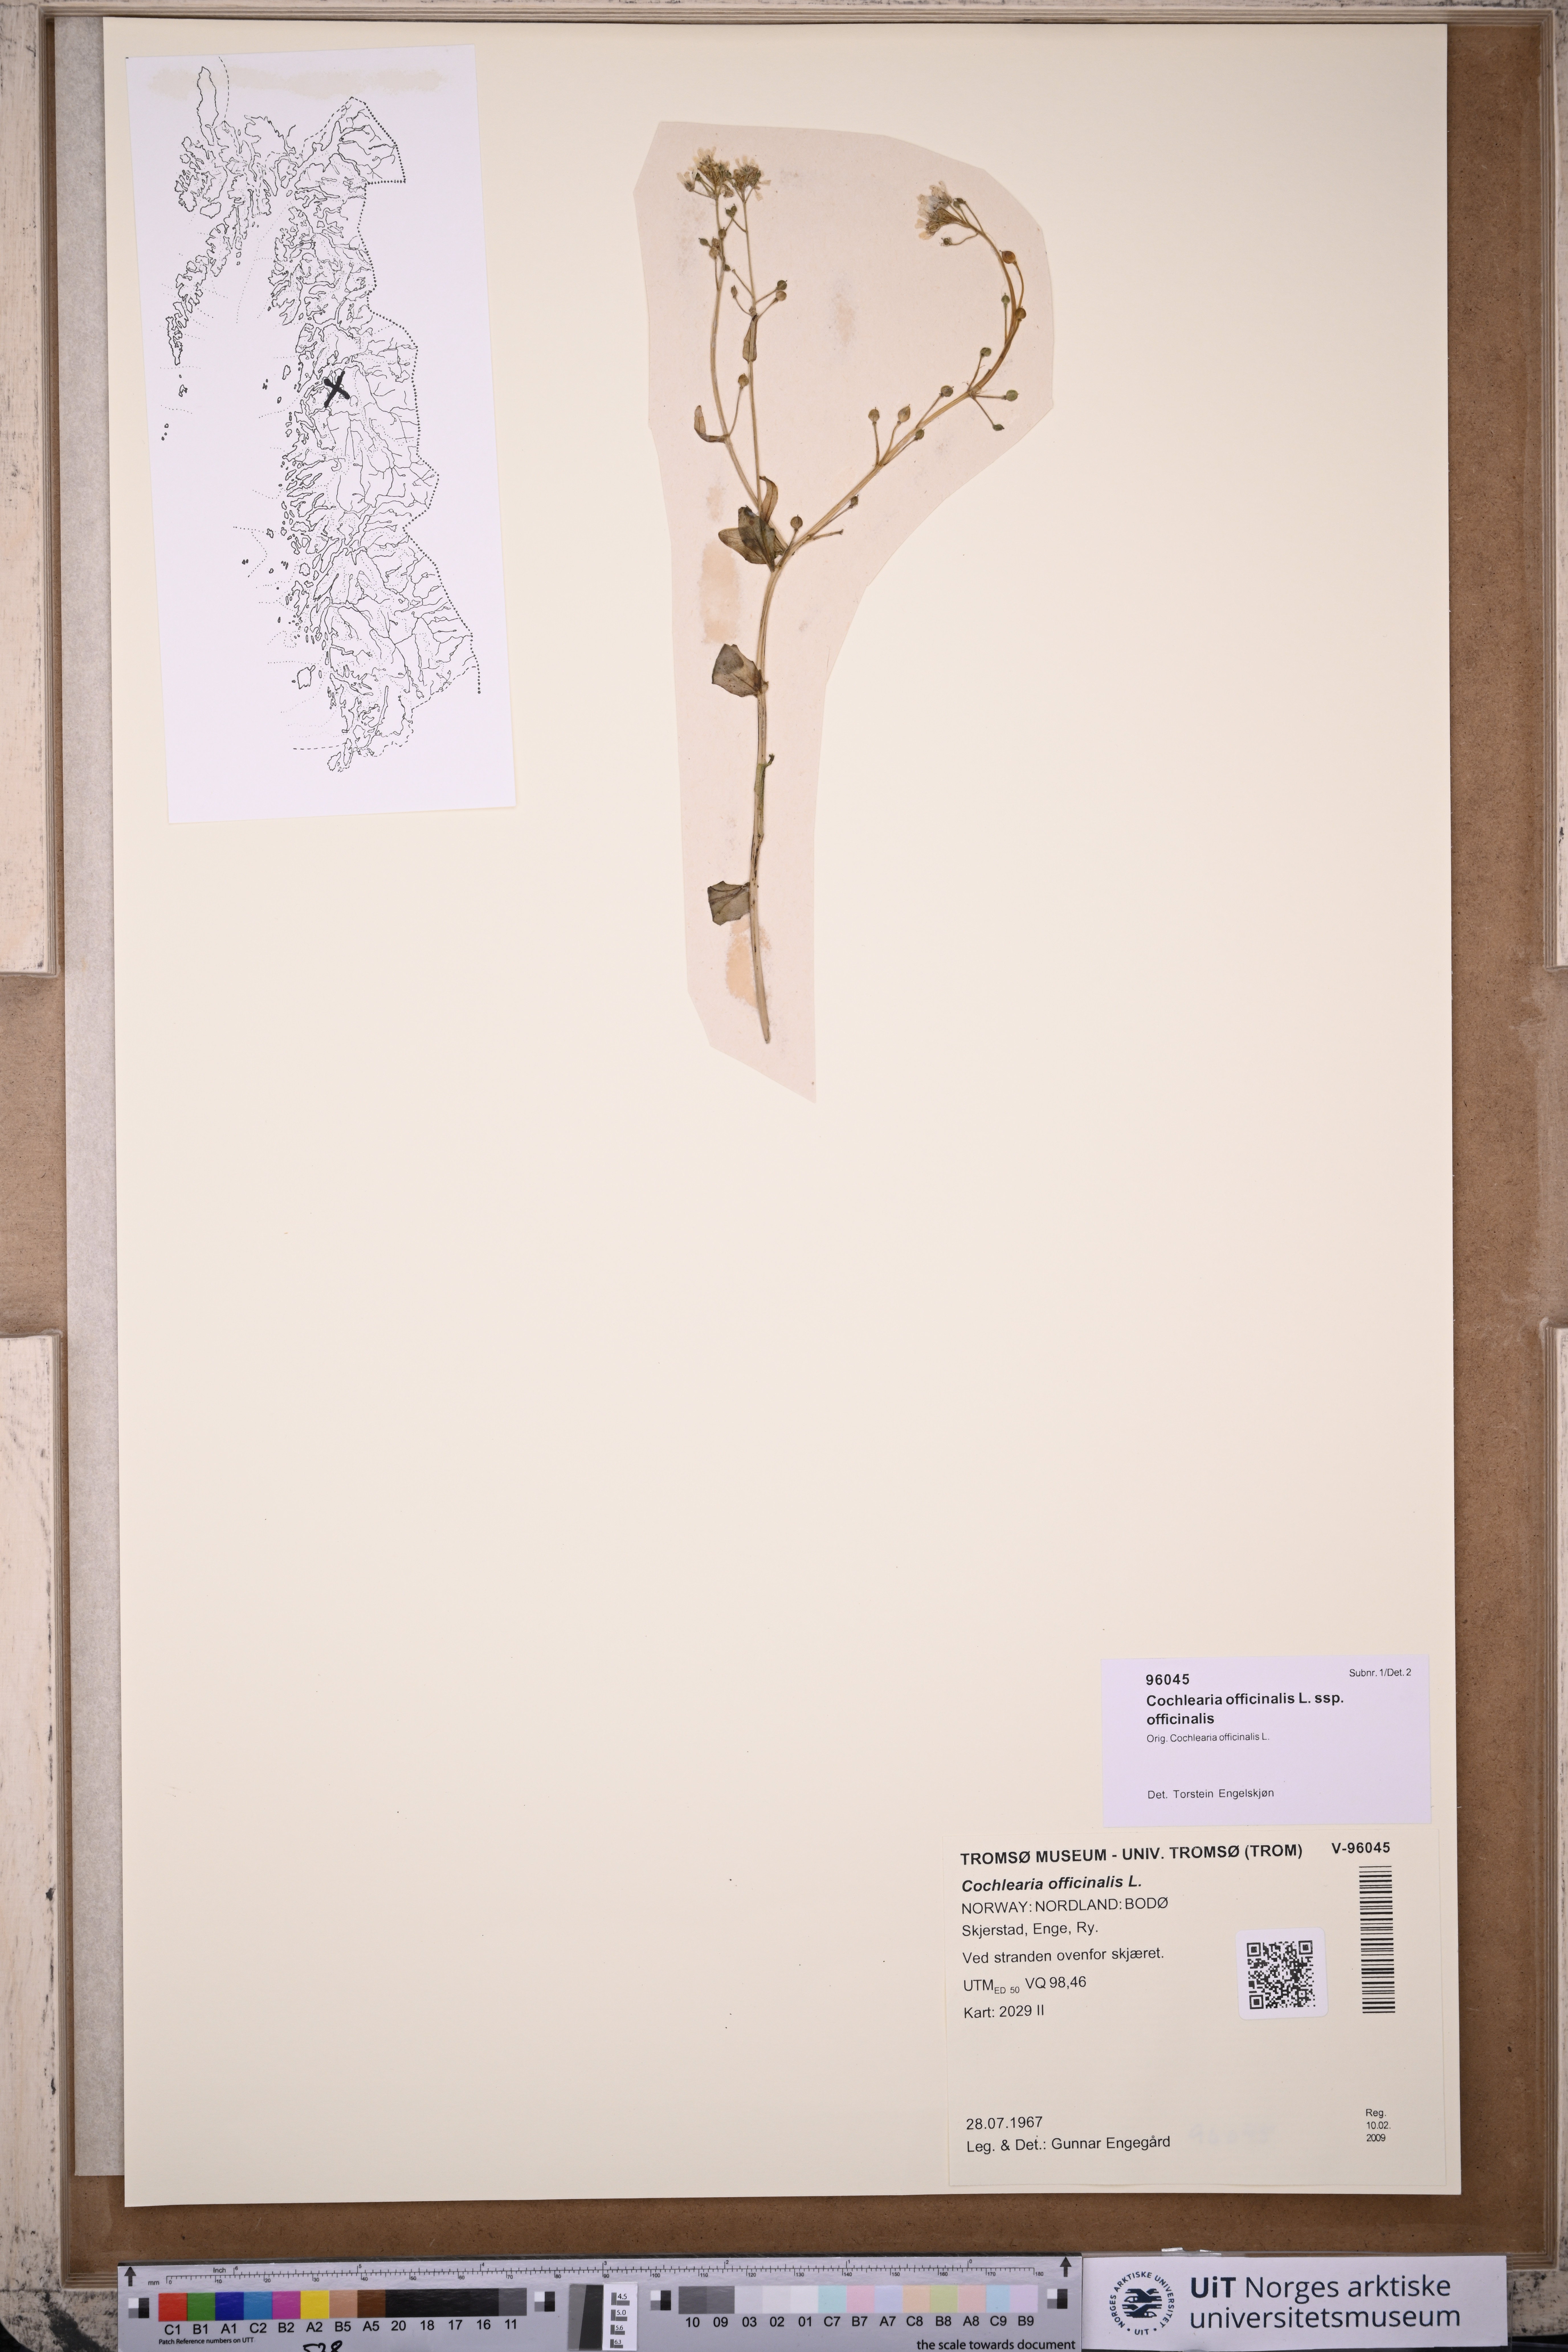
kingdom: Plantae
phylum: Tracheophyta
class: Magnoliopsida
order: Brassicales
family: Brassicaceae
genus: Cochlearia
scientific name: Cochlearia officinalis
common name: Scurvy-grass
